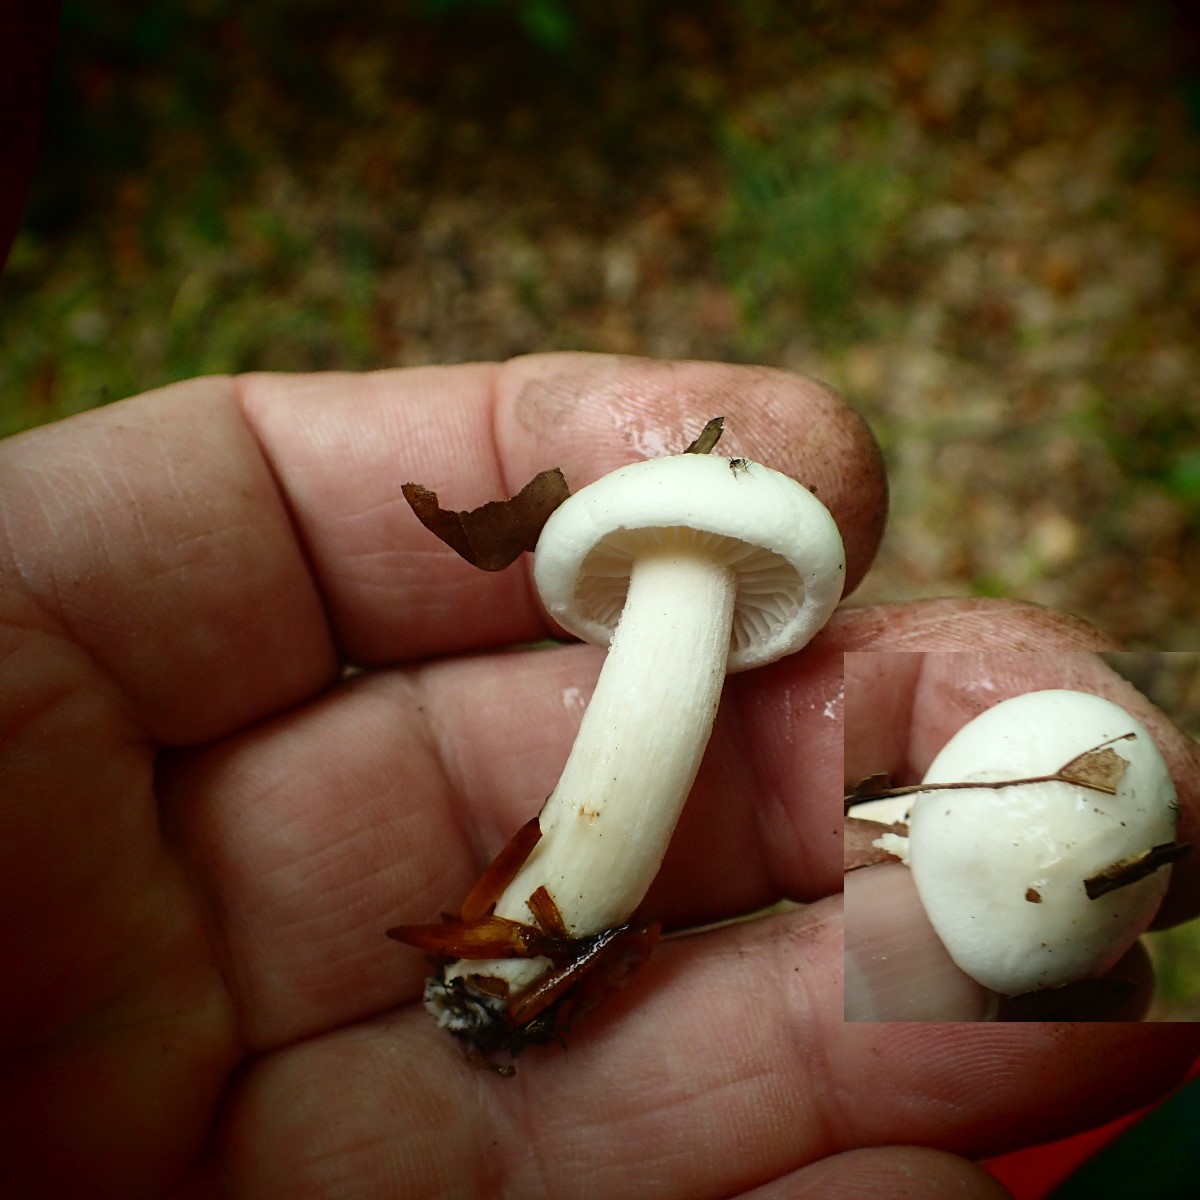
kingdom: Fungi
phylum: Basidiomycota
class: Agaricomycetes
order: Agaricales
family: Hygrophoraceae
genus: Hygrophorus
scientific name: Hygrophorus eburneus
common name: elfenbens-sneglehat
